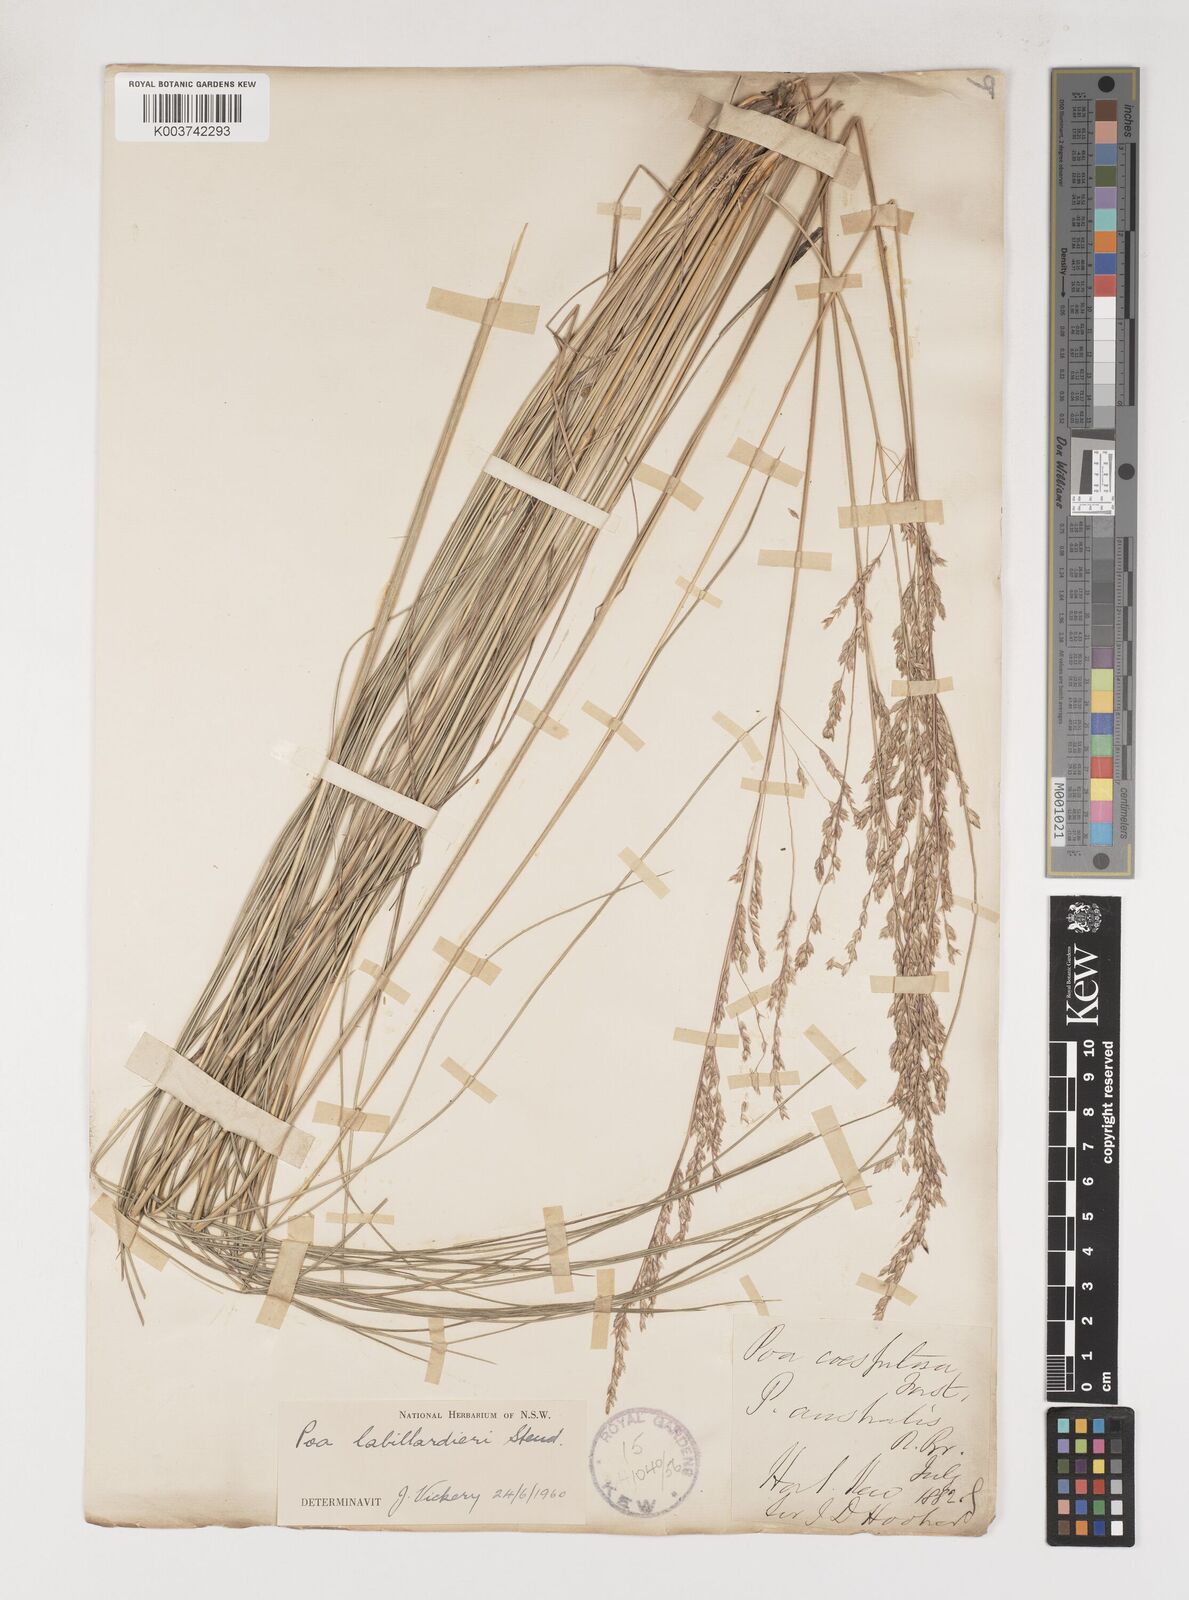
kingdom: Plantae
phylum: Tracheophyta
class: Liliopsida
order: Poales
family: Poaceae
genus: Poa
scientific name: Poa labillardierei
